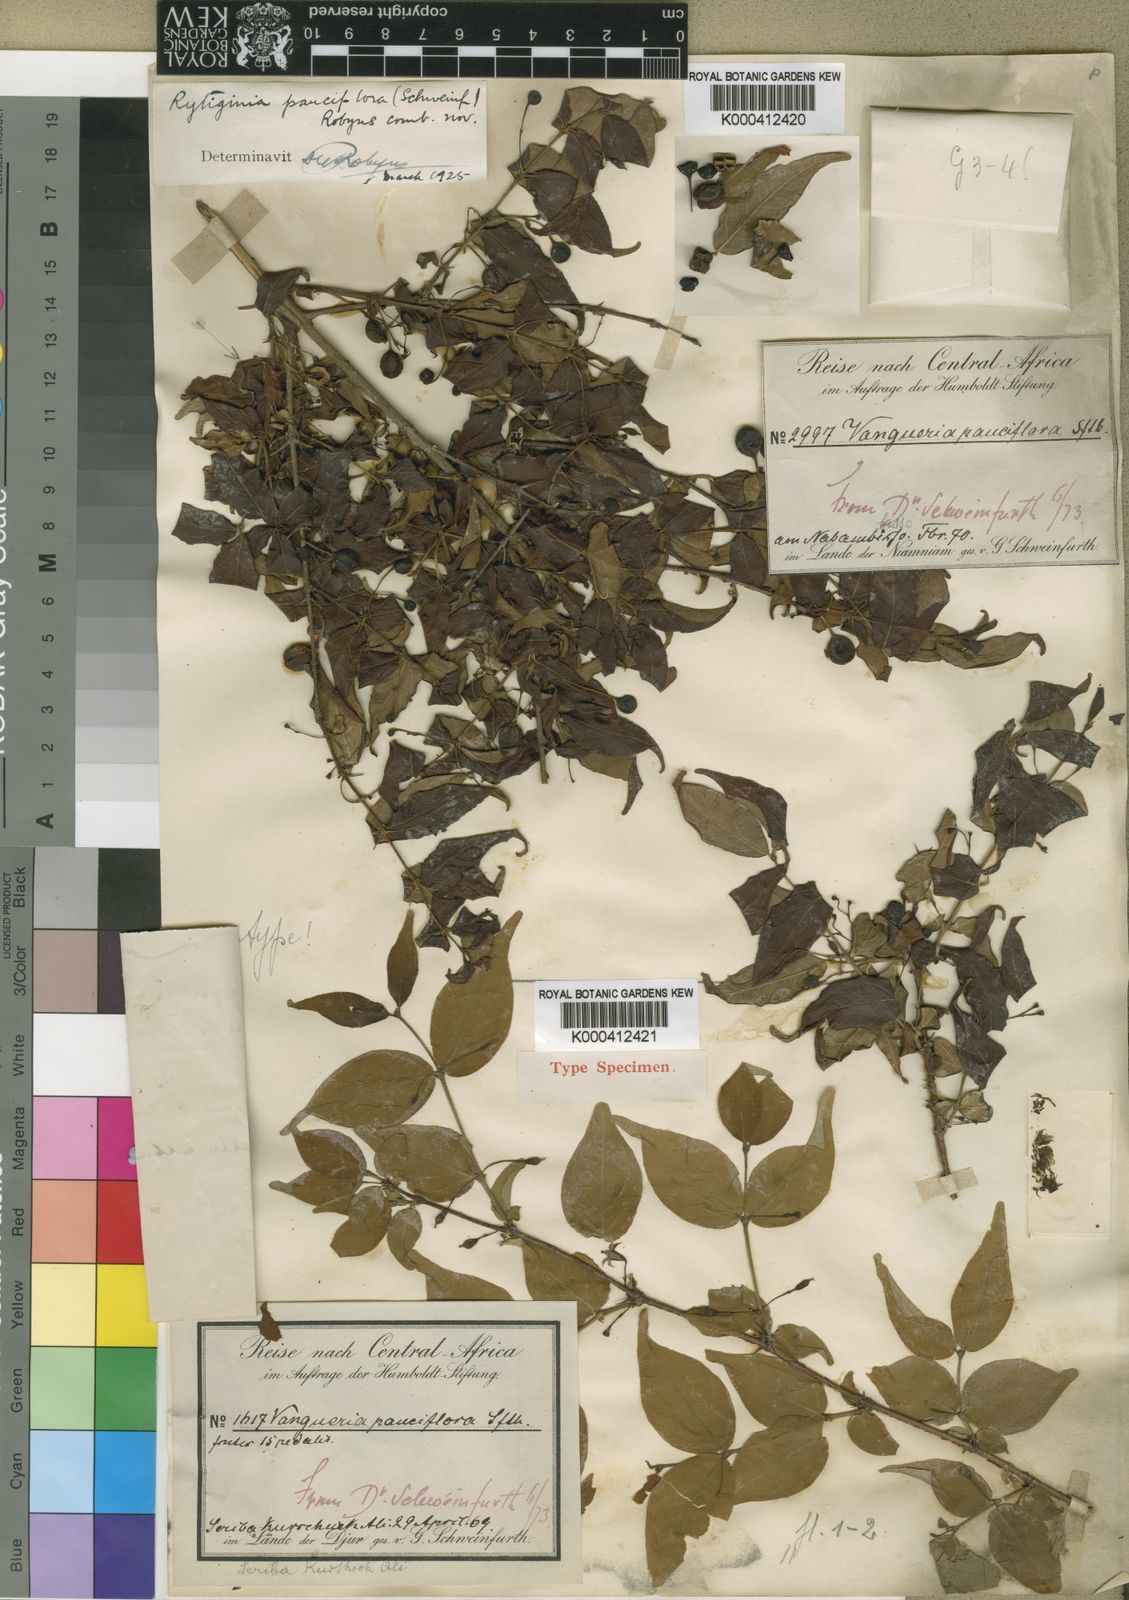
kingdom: Plantae
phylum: Tracheophyta
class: Magnoliopsida
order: Gentianales
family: Rubiaceae
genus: Rytigynia
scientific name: Rytigynia pauciflora
